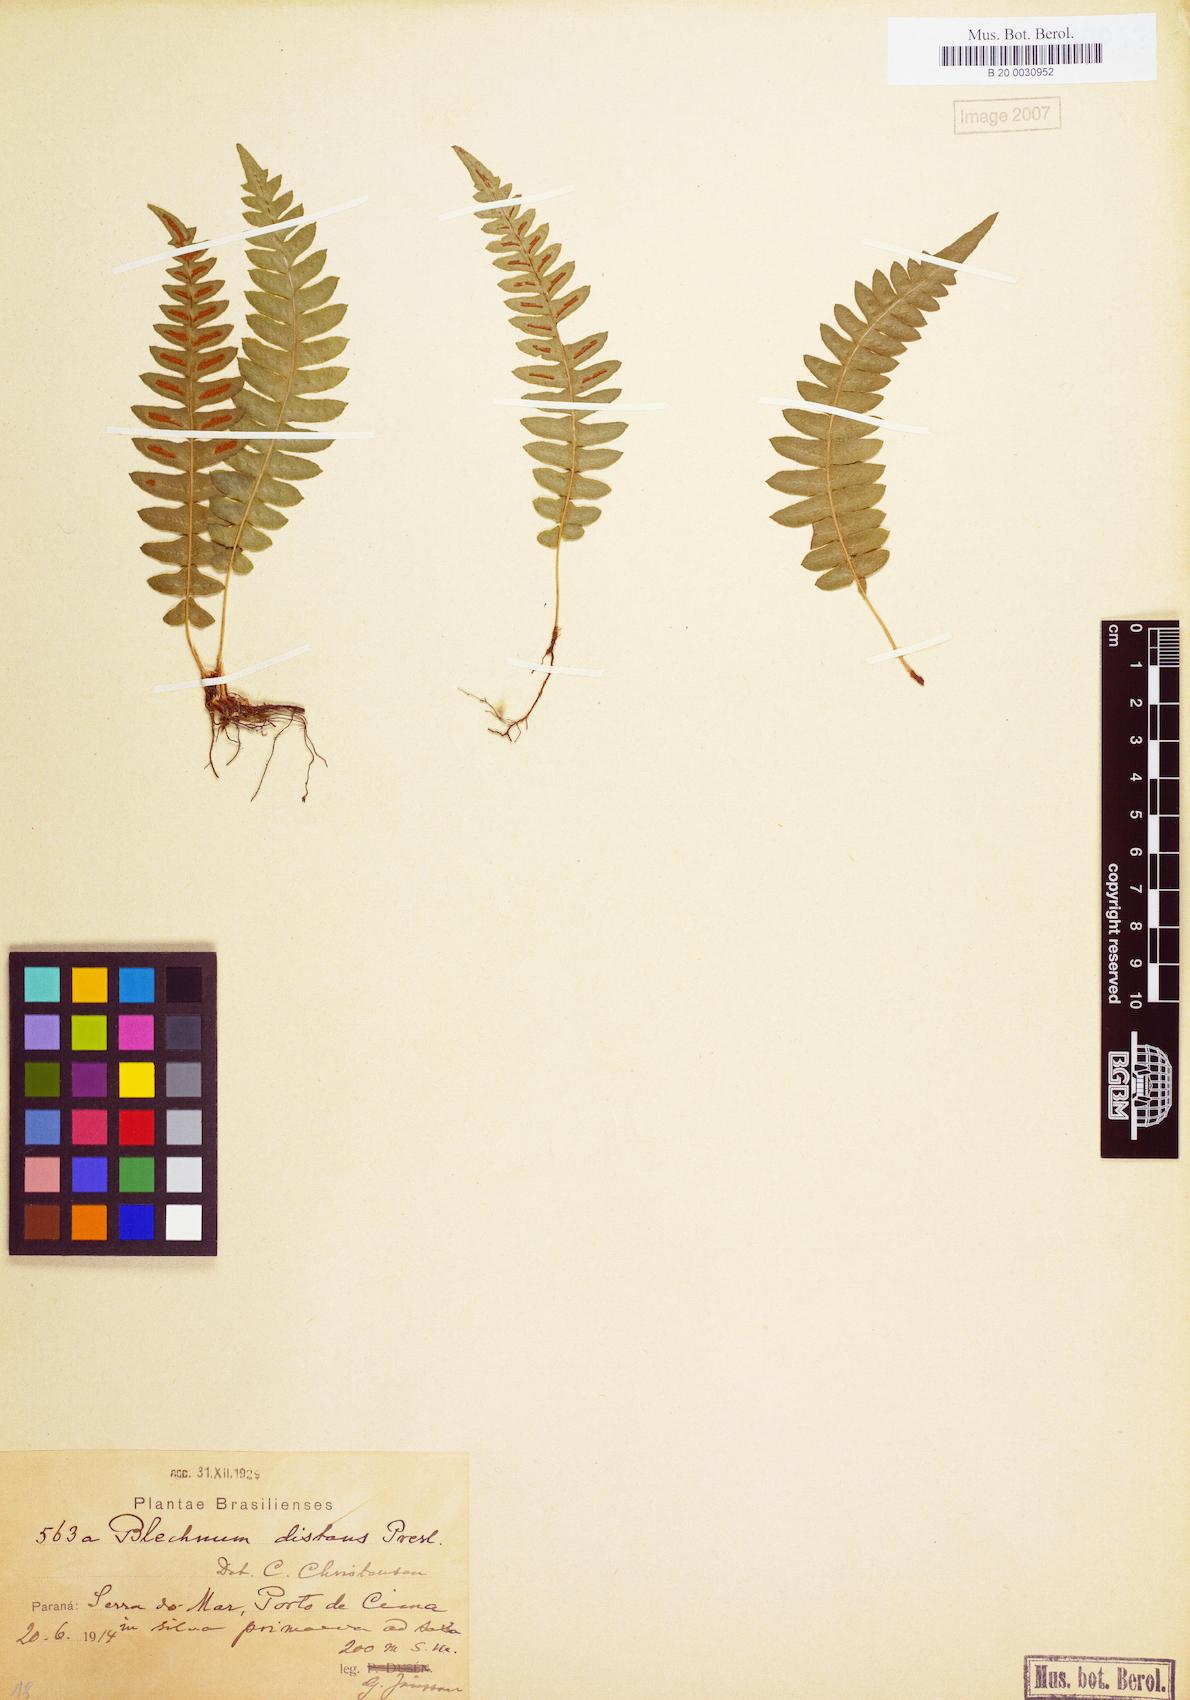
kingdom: Plantae
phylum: Tracheophyta
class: Polypodiopsida
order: Polypodiales
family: Blechnaceae
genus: Blechnum
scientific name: Blechnum laevigatum
